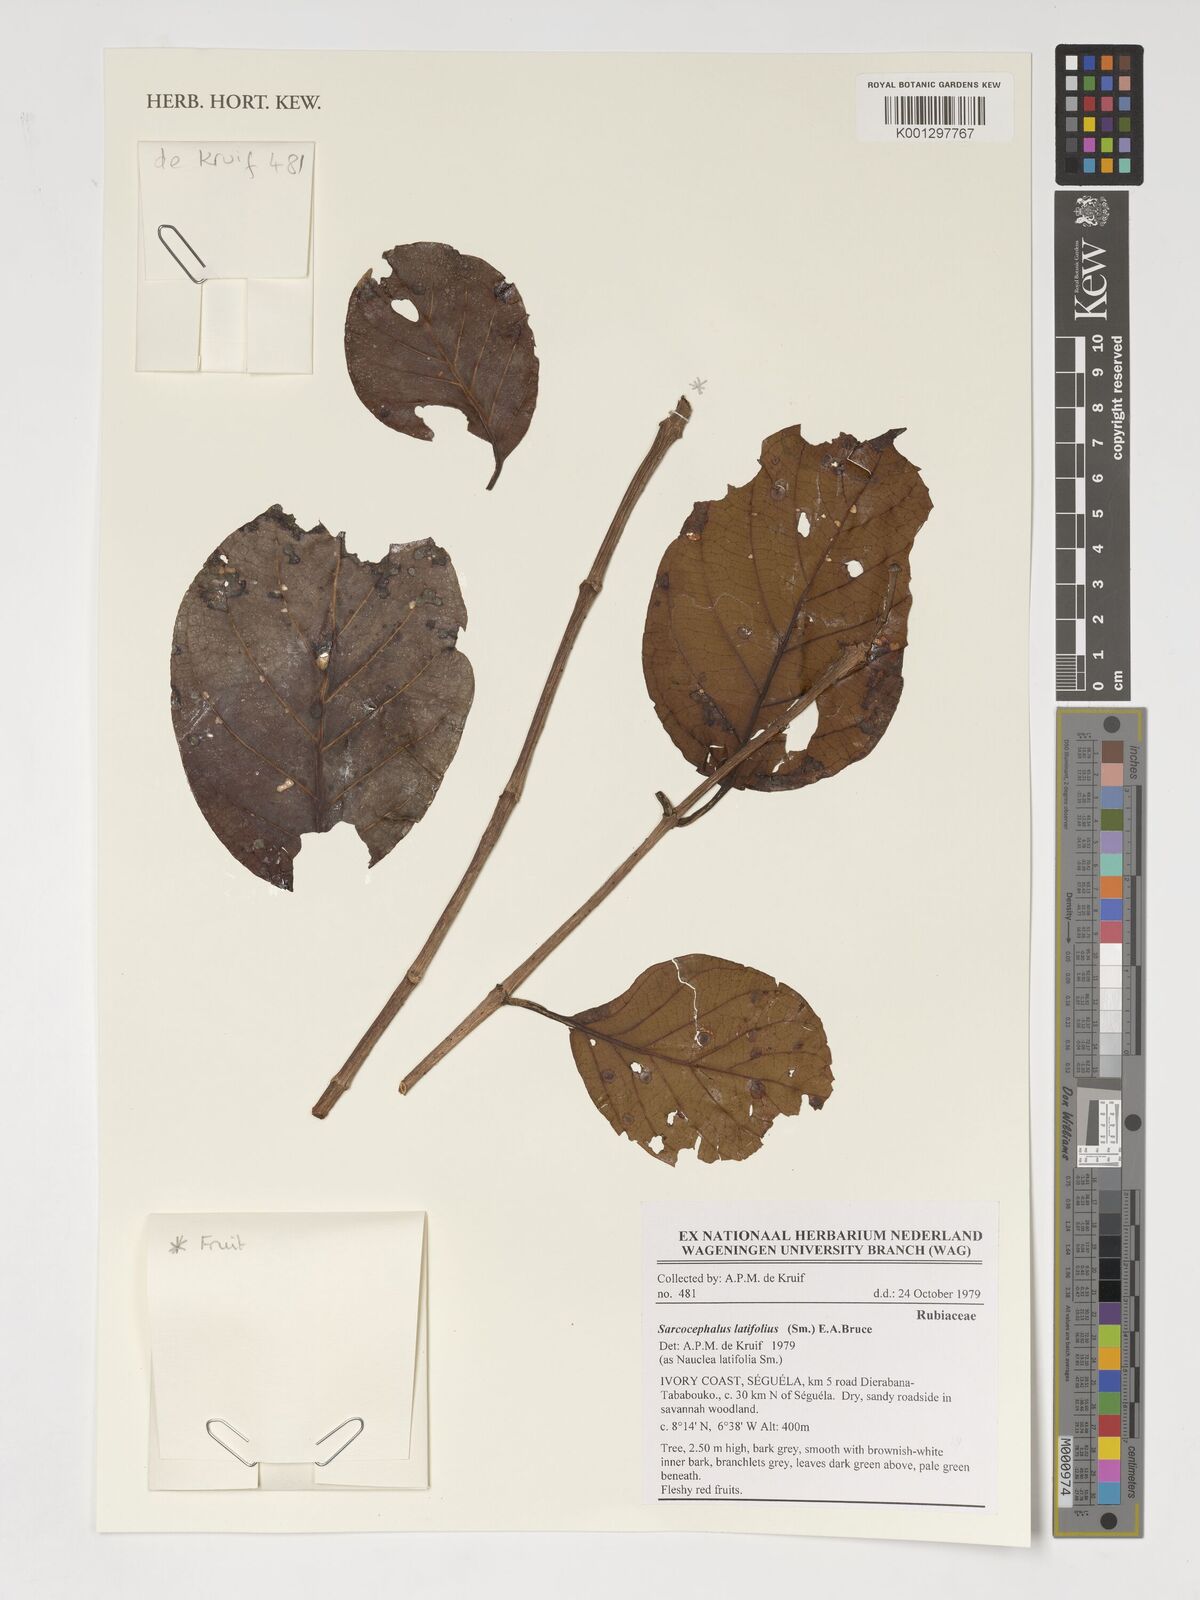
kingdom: Plantae
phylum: Tracheophyta
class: Magnoliopsida
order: Gentianales
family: Rubiaceae
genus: Nauclea
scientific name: Nauclea latifolia
